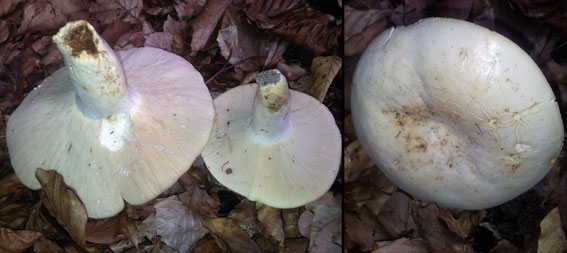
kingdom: Fungi
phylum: Basidiomycota
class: Agaricomycetes
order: Russulales
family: Russulaceae
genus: Lactifluus
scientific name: Lactifluus piperatus
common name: peber-mælkehat
